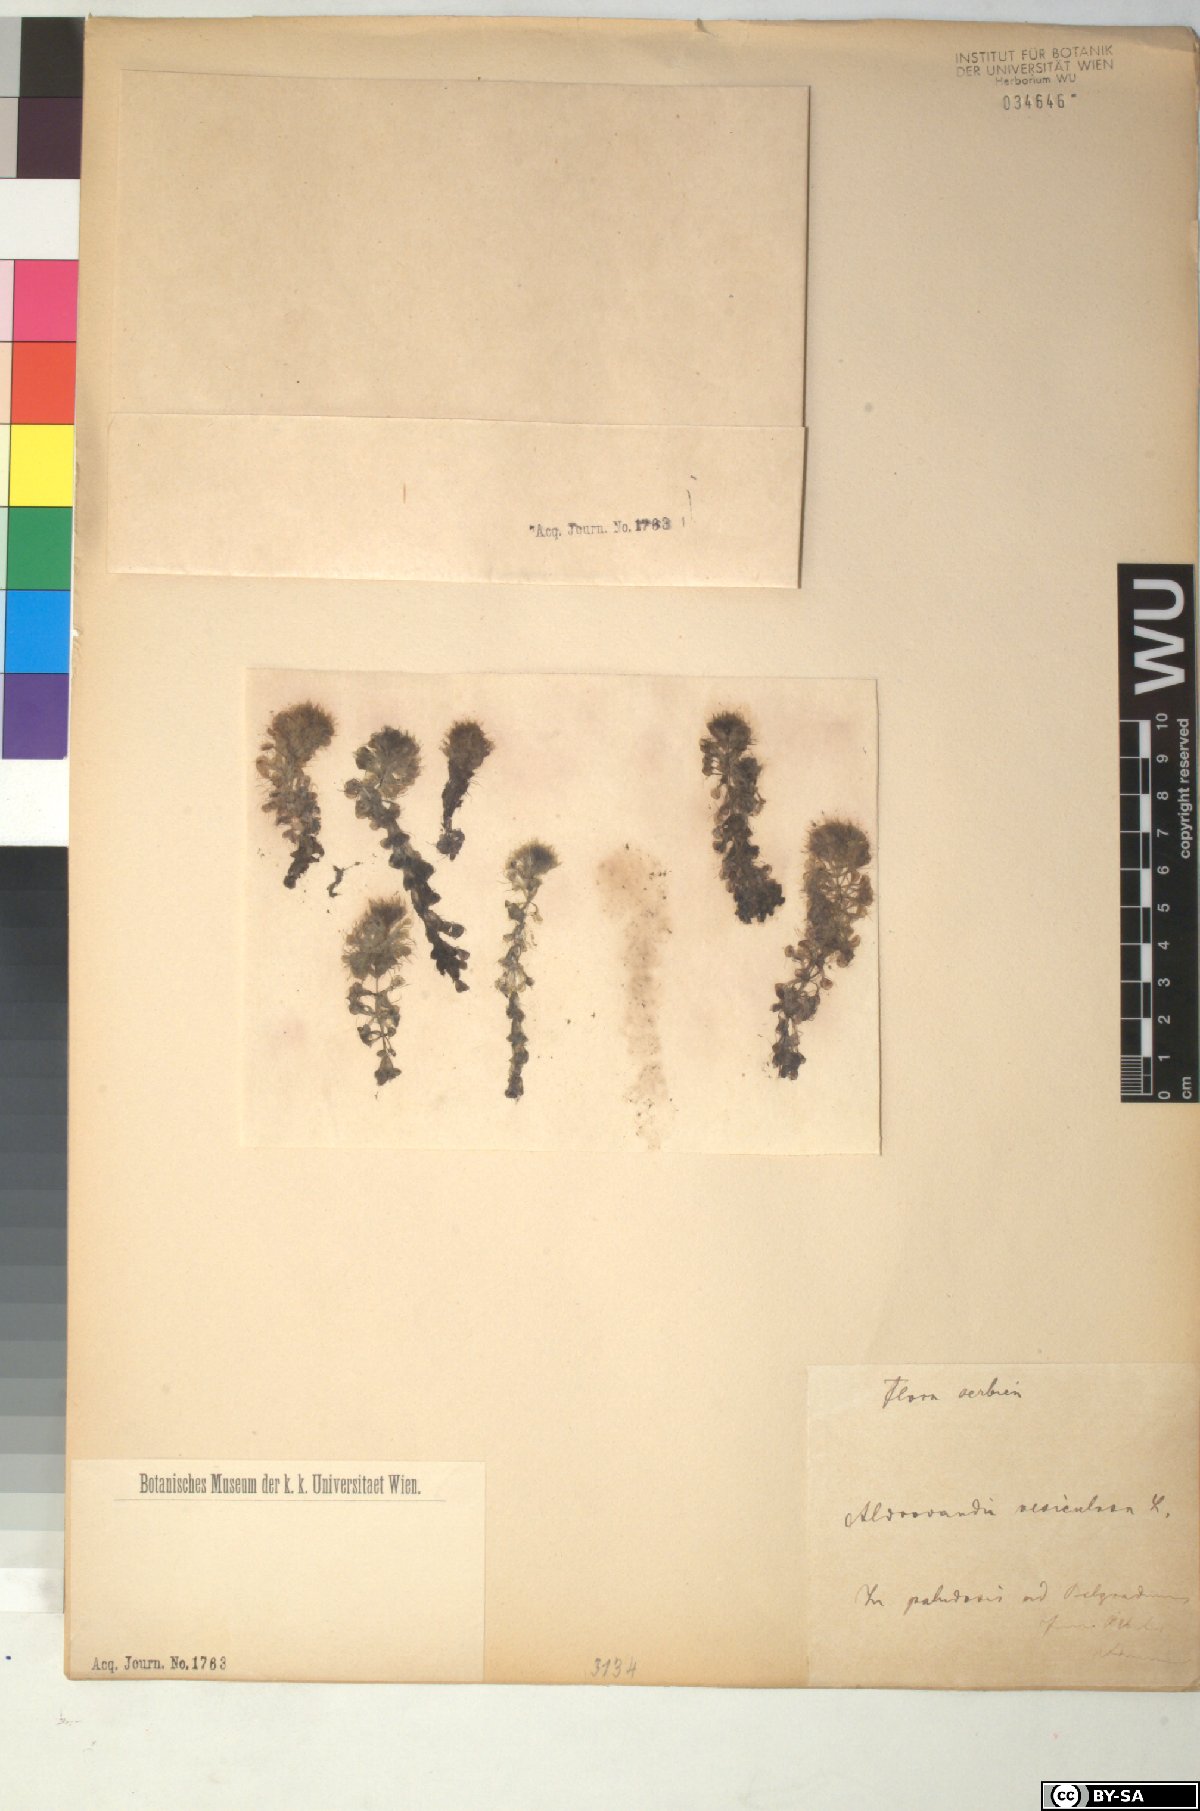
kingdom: Plantae
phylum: Tracheophyta
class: Magnoliopsida
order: Caryophyllales
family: Droseraceae
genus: Aldrovanda
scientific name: Aldrovanda vesiculosa
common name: Waterwheel plant
